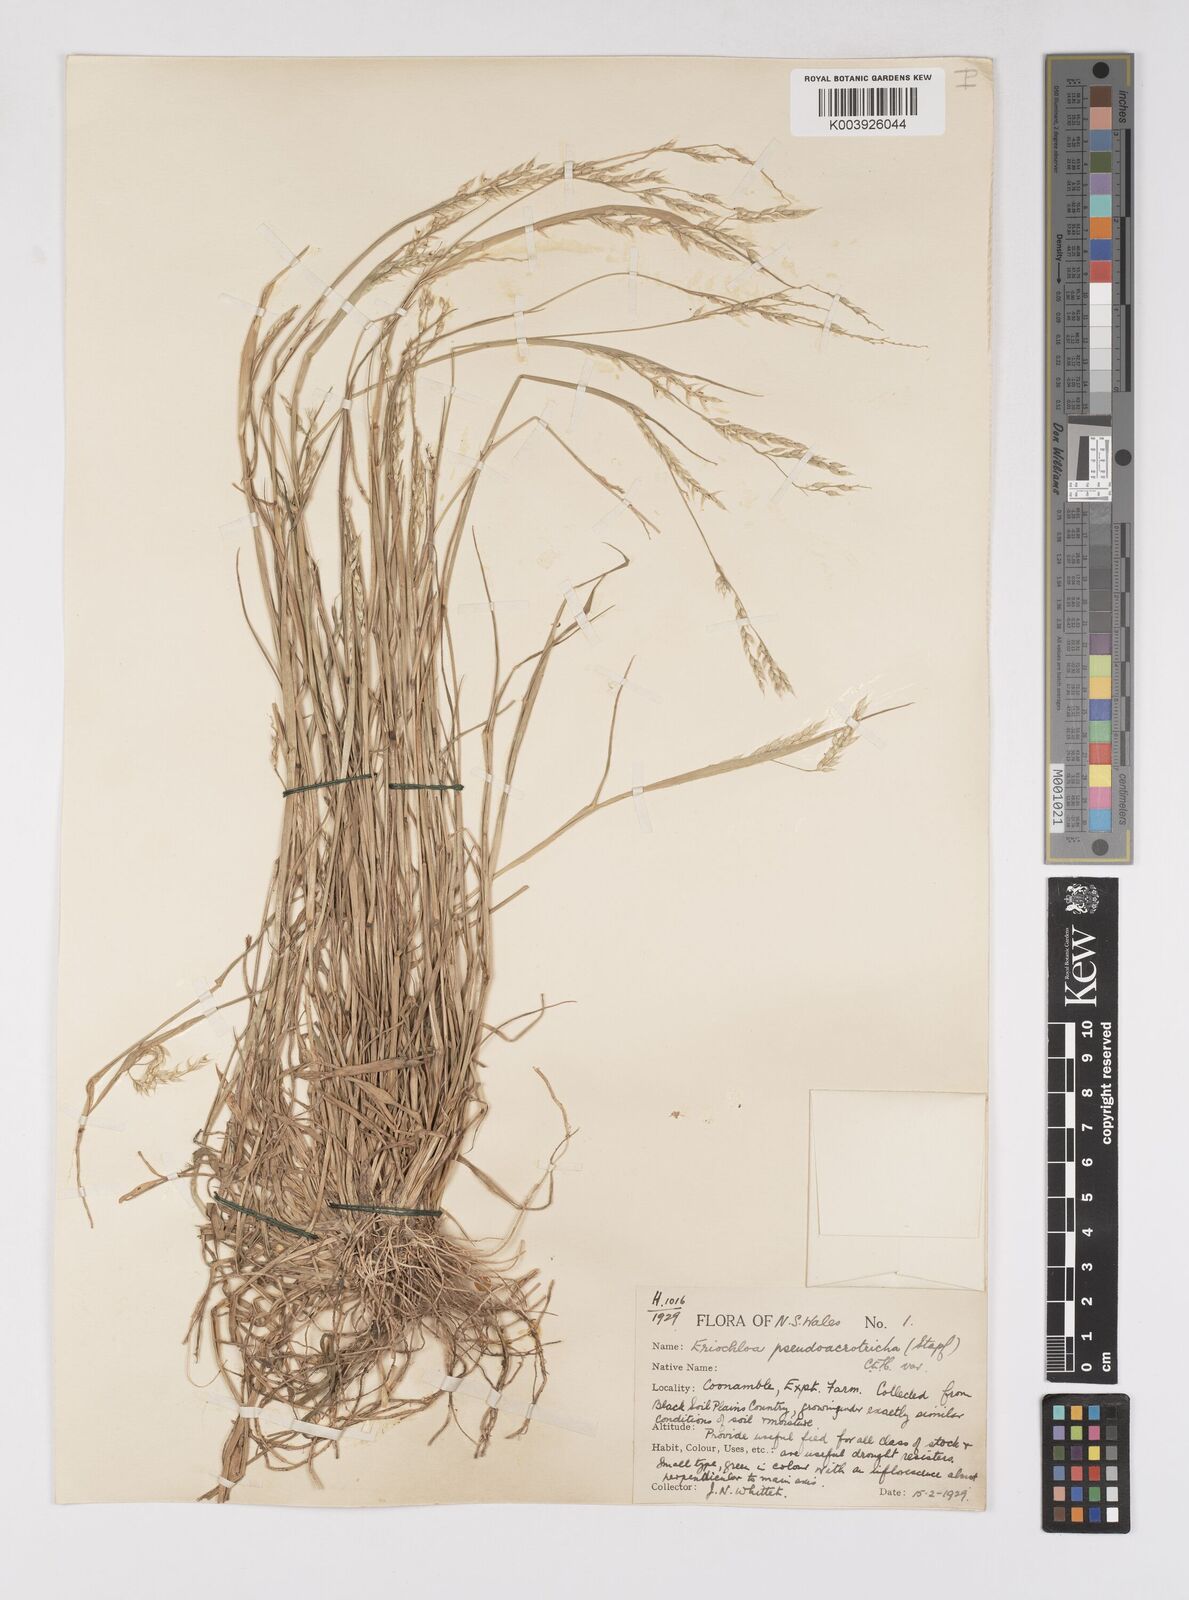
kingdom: Plantae
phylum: Tracheophyta
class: Liliopsida
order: Poales
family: Poaceae
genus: Eriochloa
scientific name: Eriochloa pseudoacrotricha
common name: Perennial cup-grass
